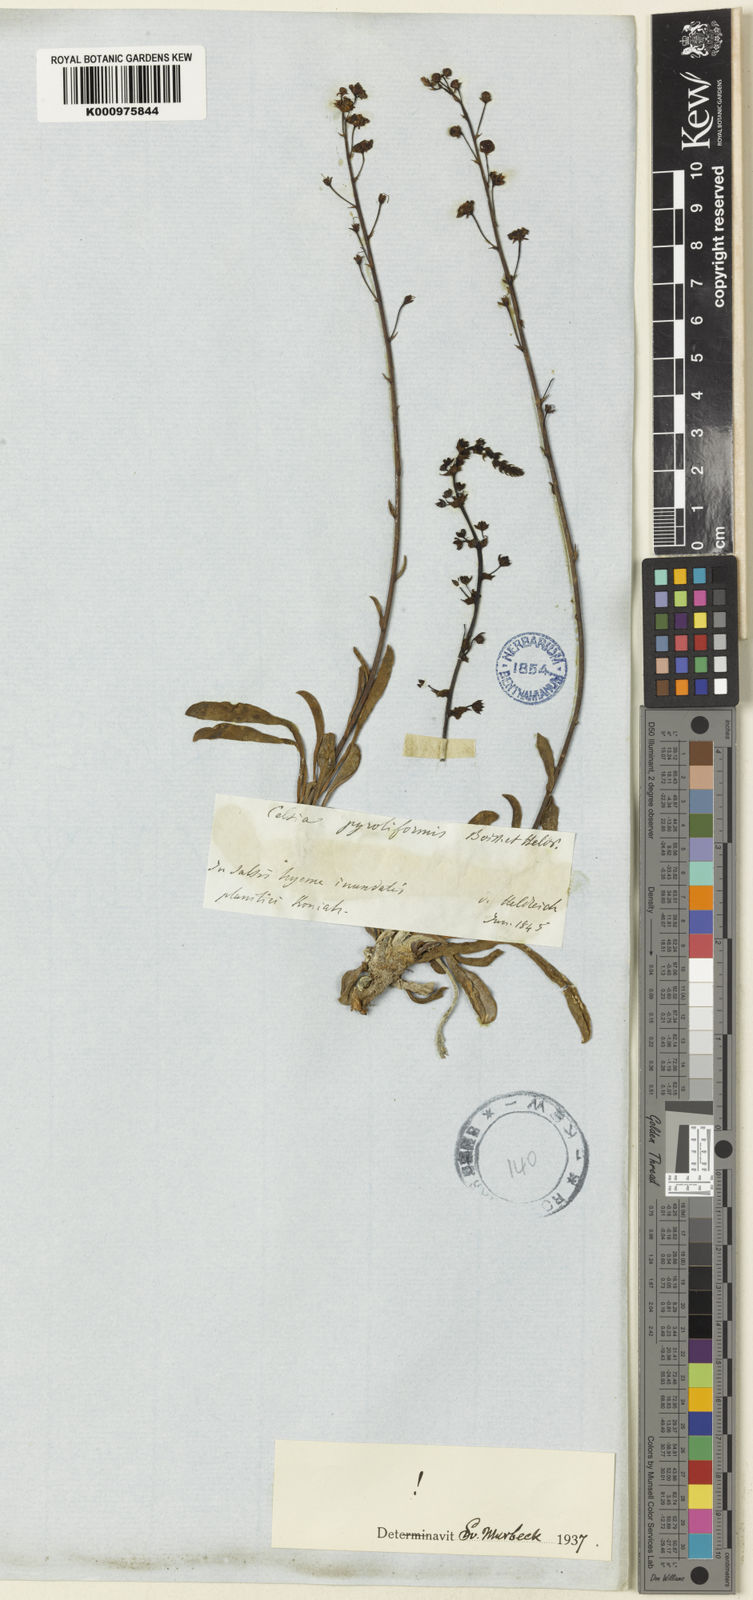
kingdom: Plantae
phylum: Tracheophyta
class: Magnoliopsida
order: Lamiales
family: Scrophulariaceae
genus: Verbascum
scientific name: Verbascum pyroliforme
